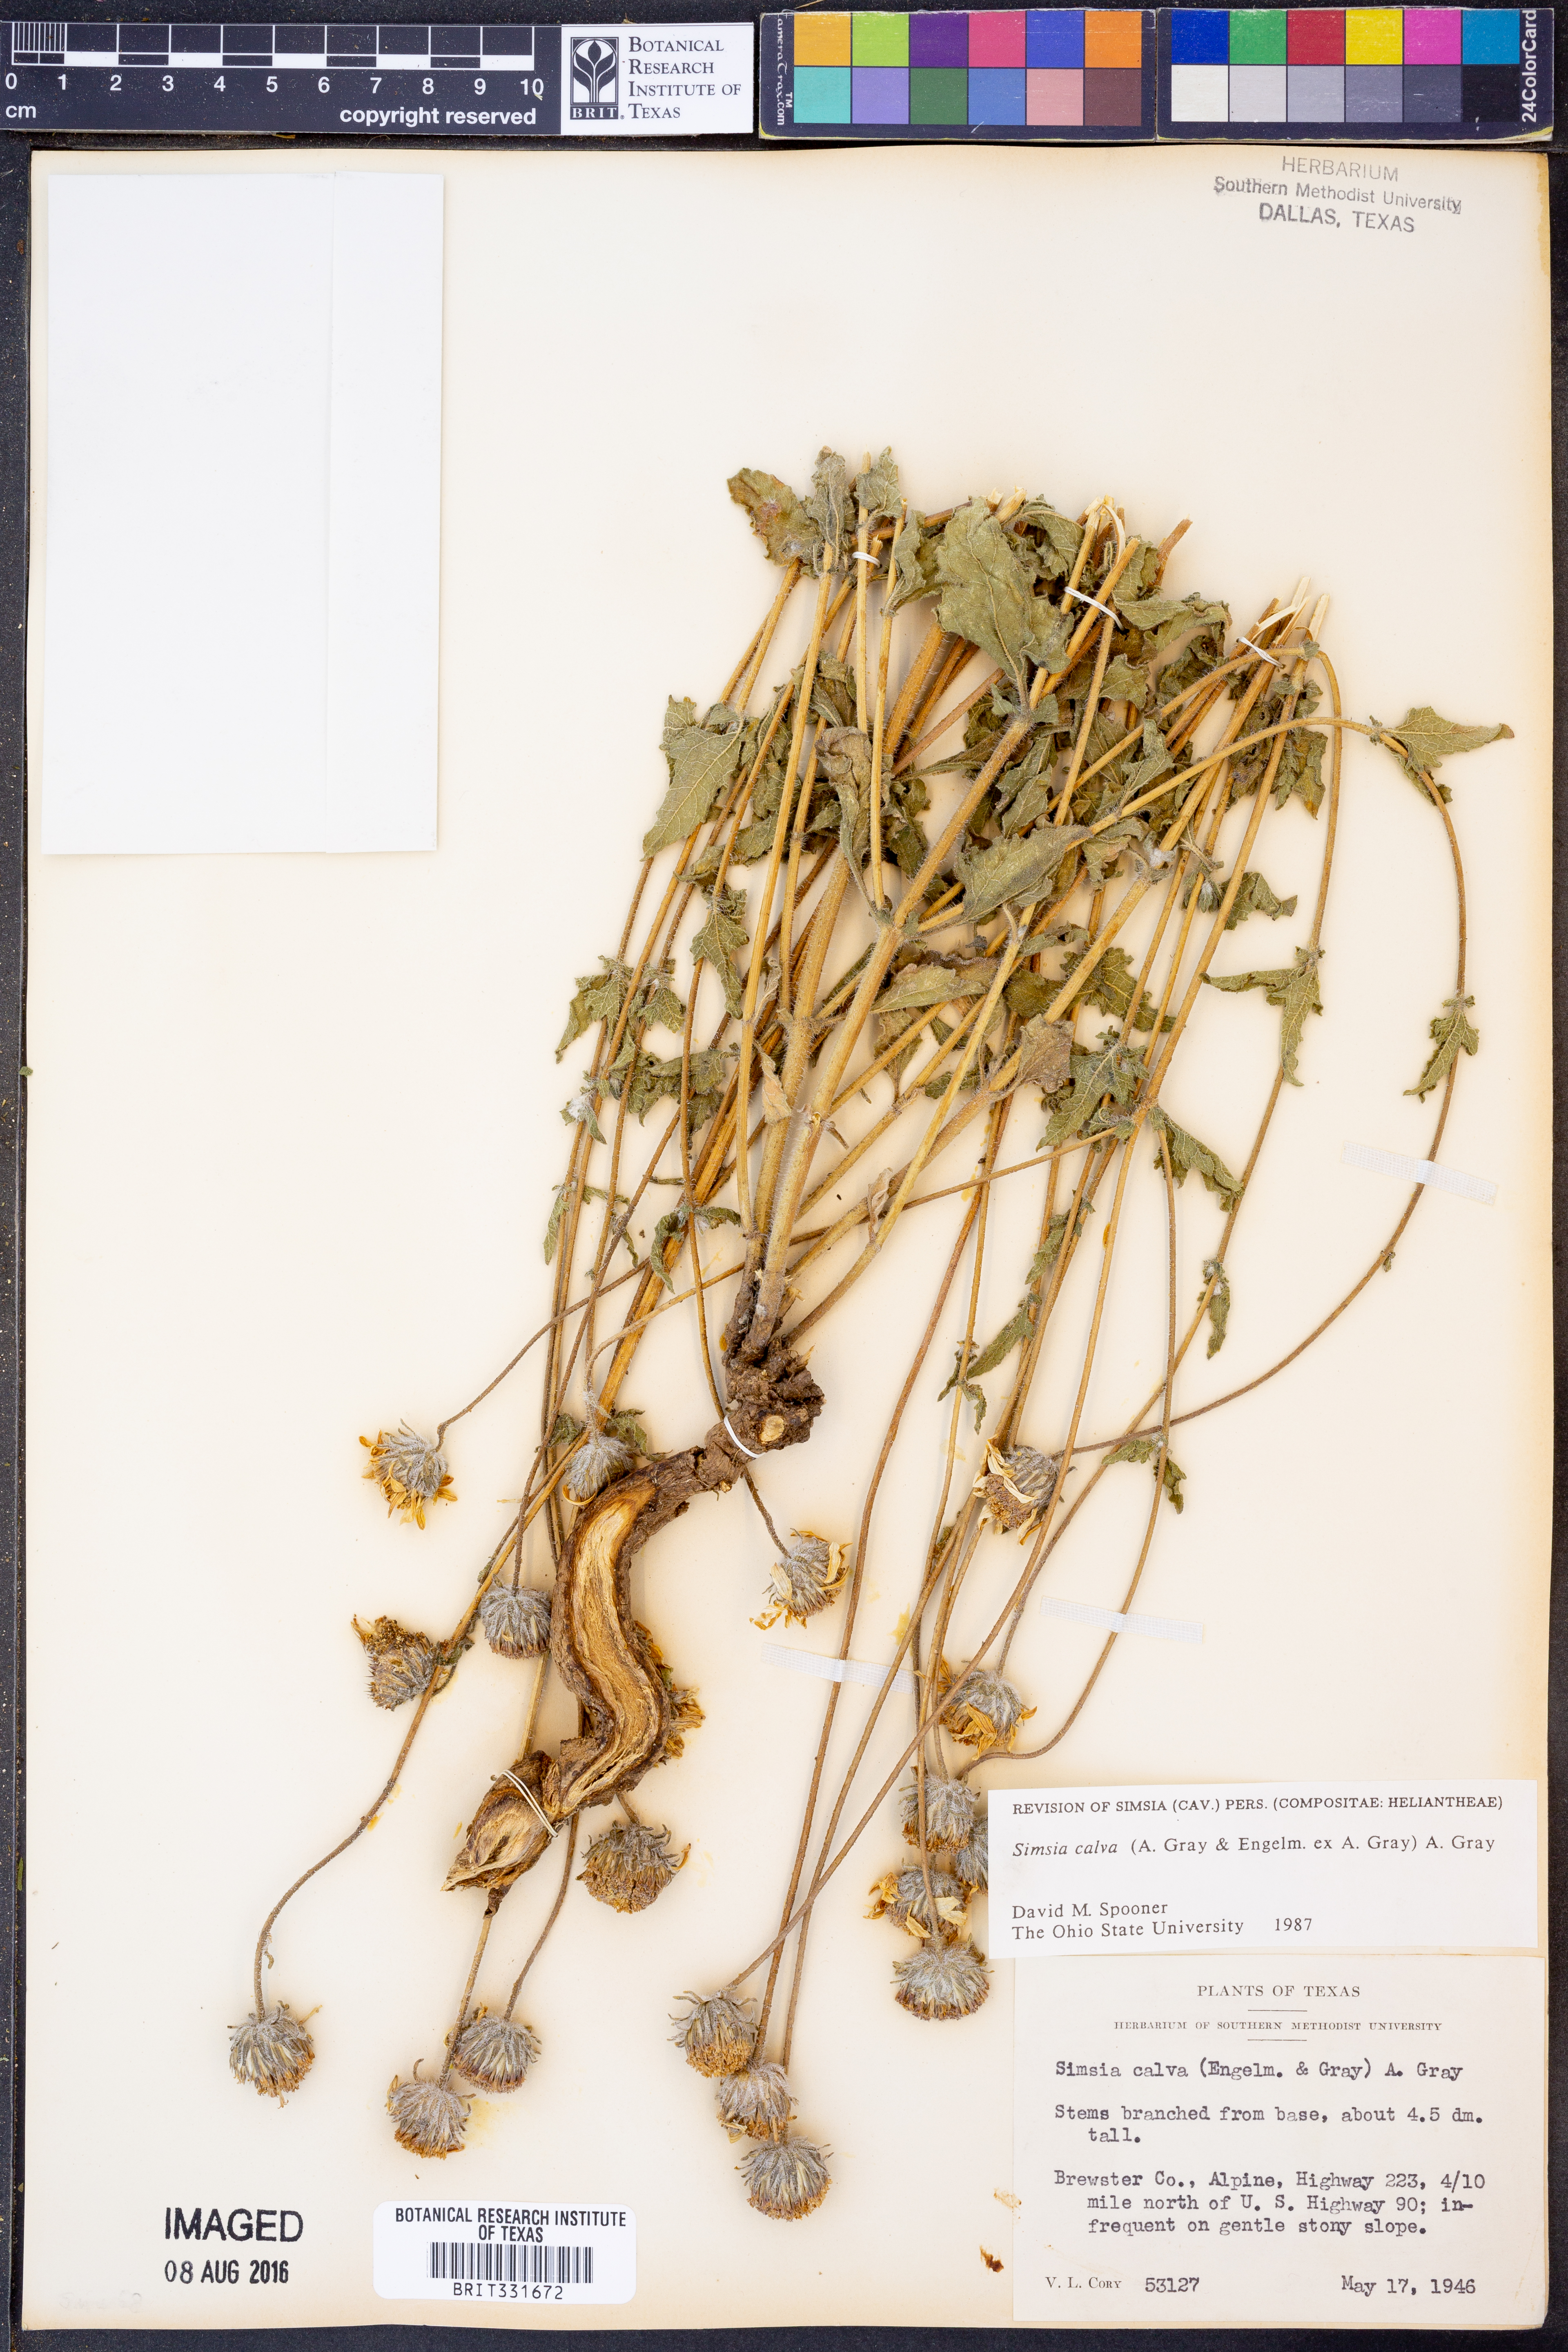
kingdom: Plantae
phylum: Tracheophyta
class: Magnoliopsida
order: Asterales
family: Asteraceae
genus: Simsia
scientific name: Simsia calva
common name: Awnless bush-sunflower
